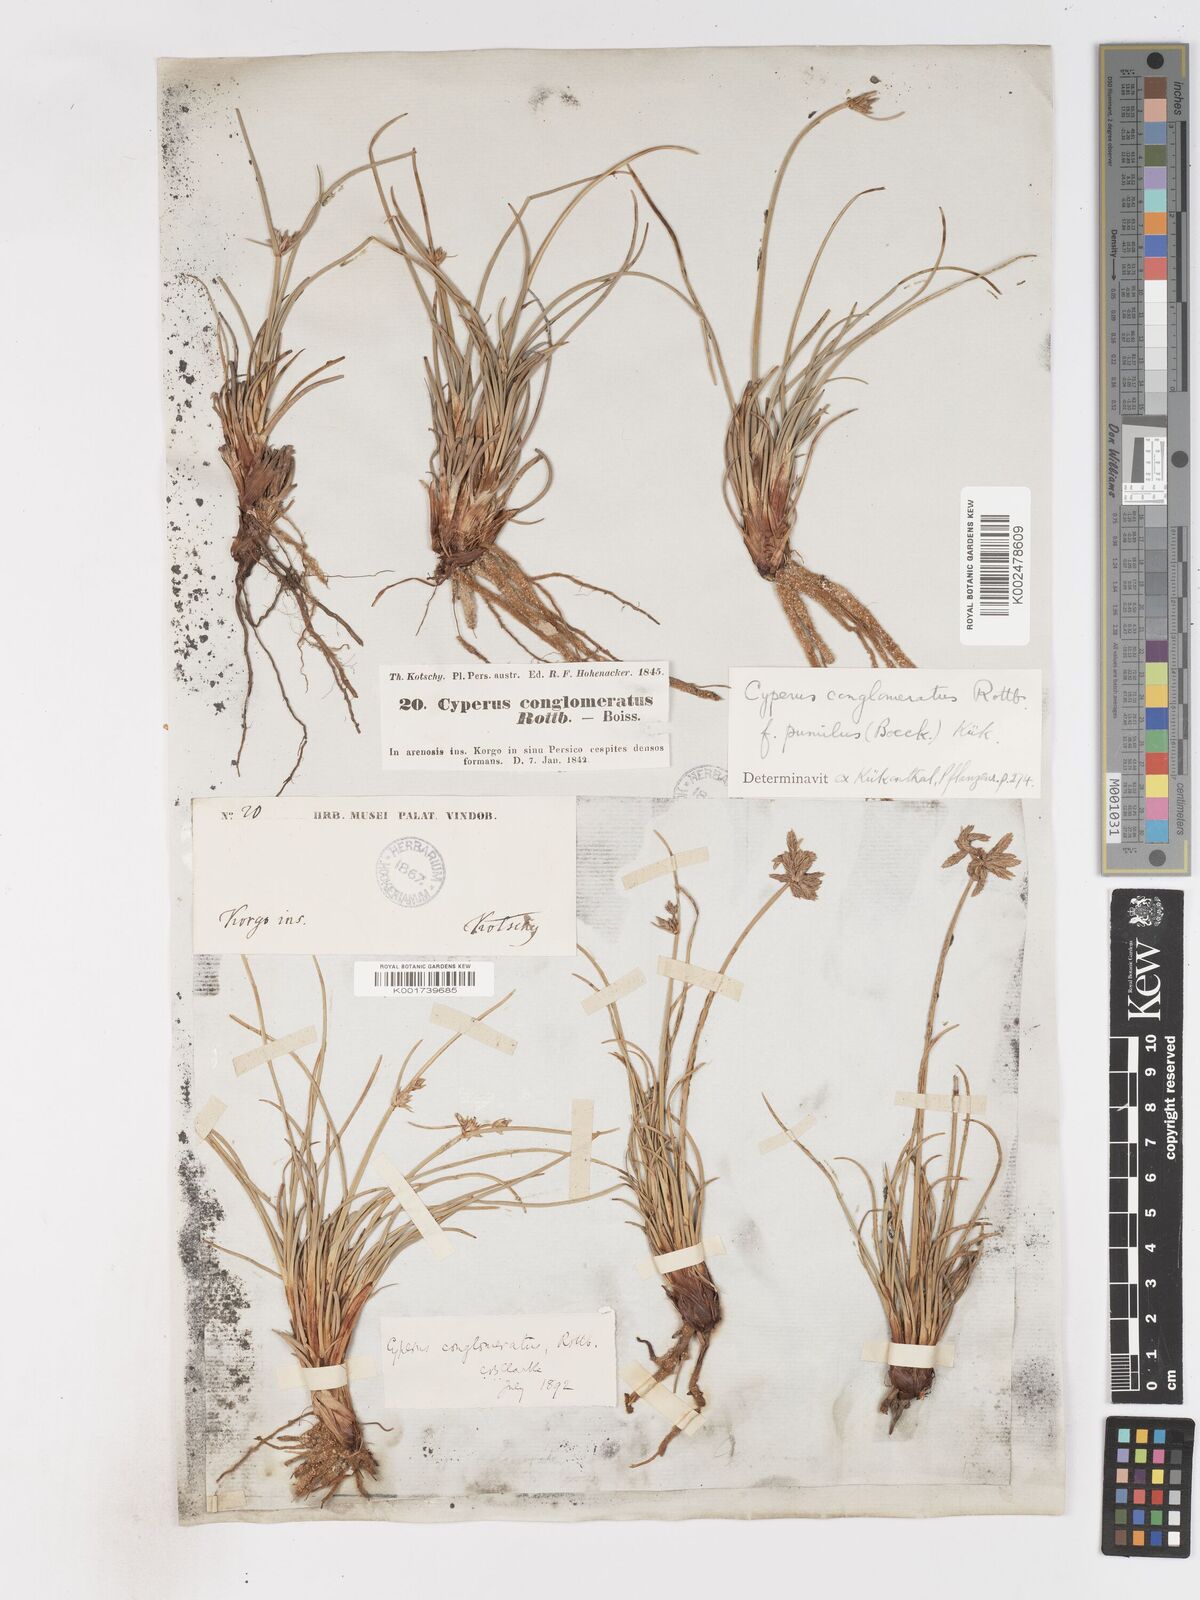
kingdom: Plantae
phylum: Tracheophyta
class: Liliopsida
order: Poales
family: Cyperaceae
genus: Cyperus
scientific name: Cyperus conglomeratus
